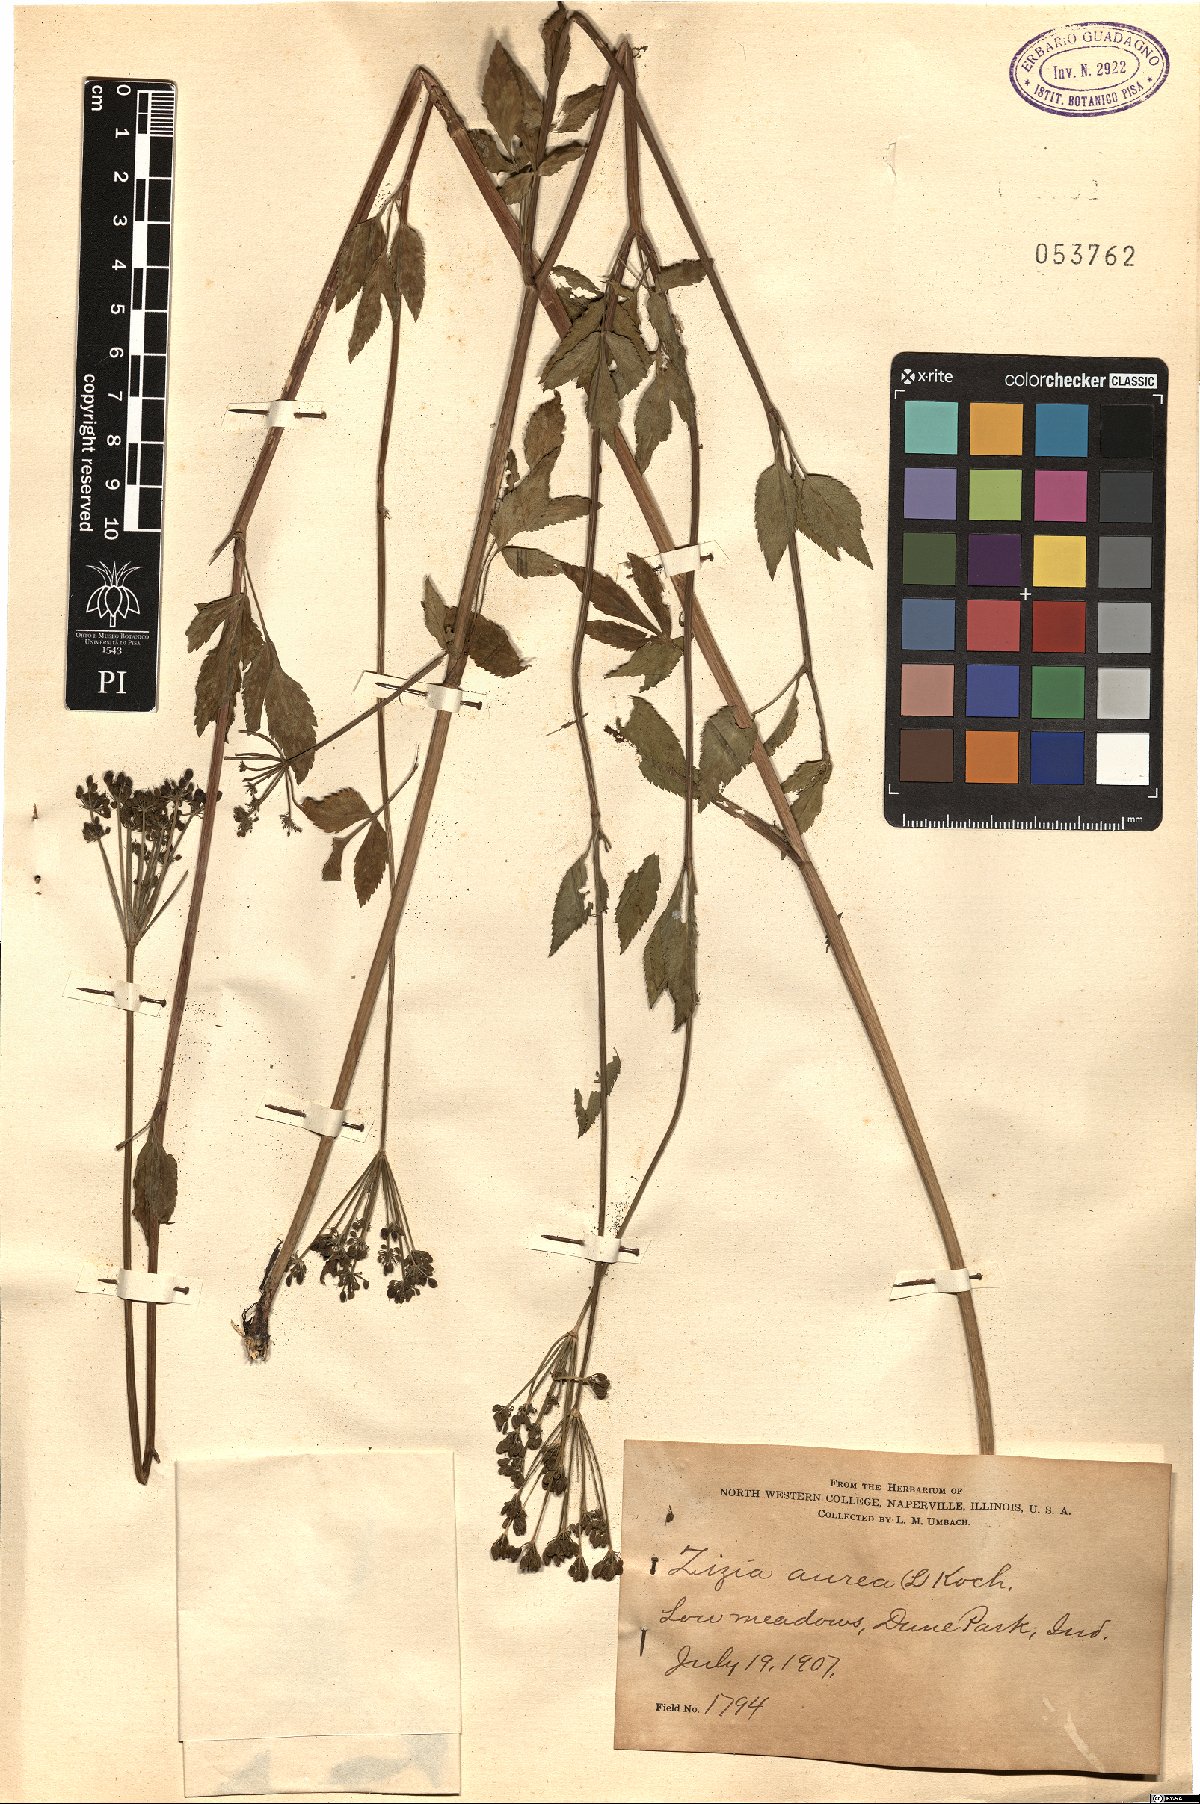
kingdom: Plantae
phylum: Tracheophyta
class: Magnoliopsida
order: Apiales
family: Apiaceae
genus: Zizia
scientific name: Zizia aurea
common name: Golden alexanders
